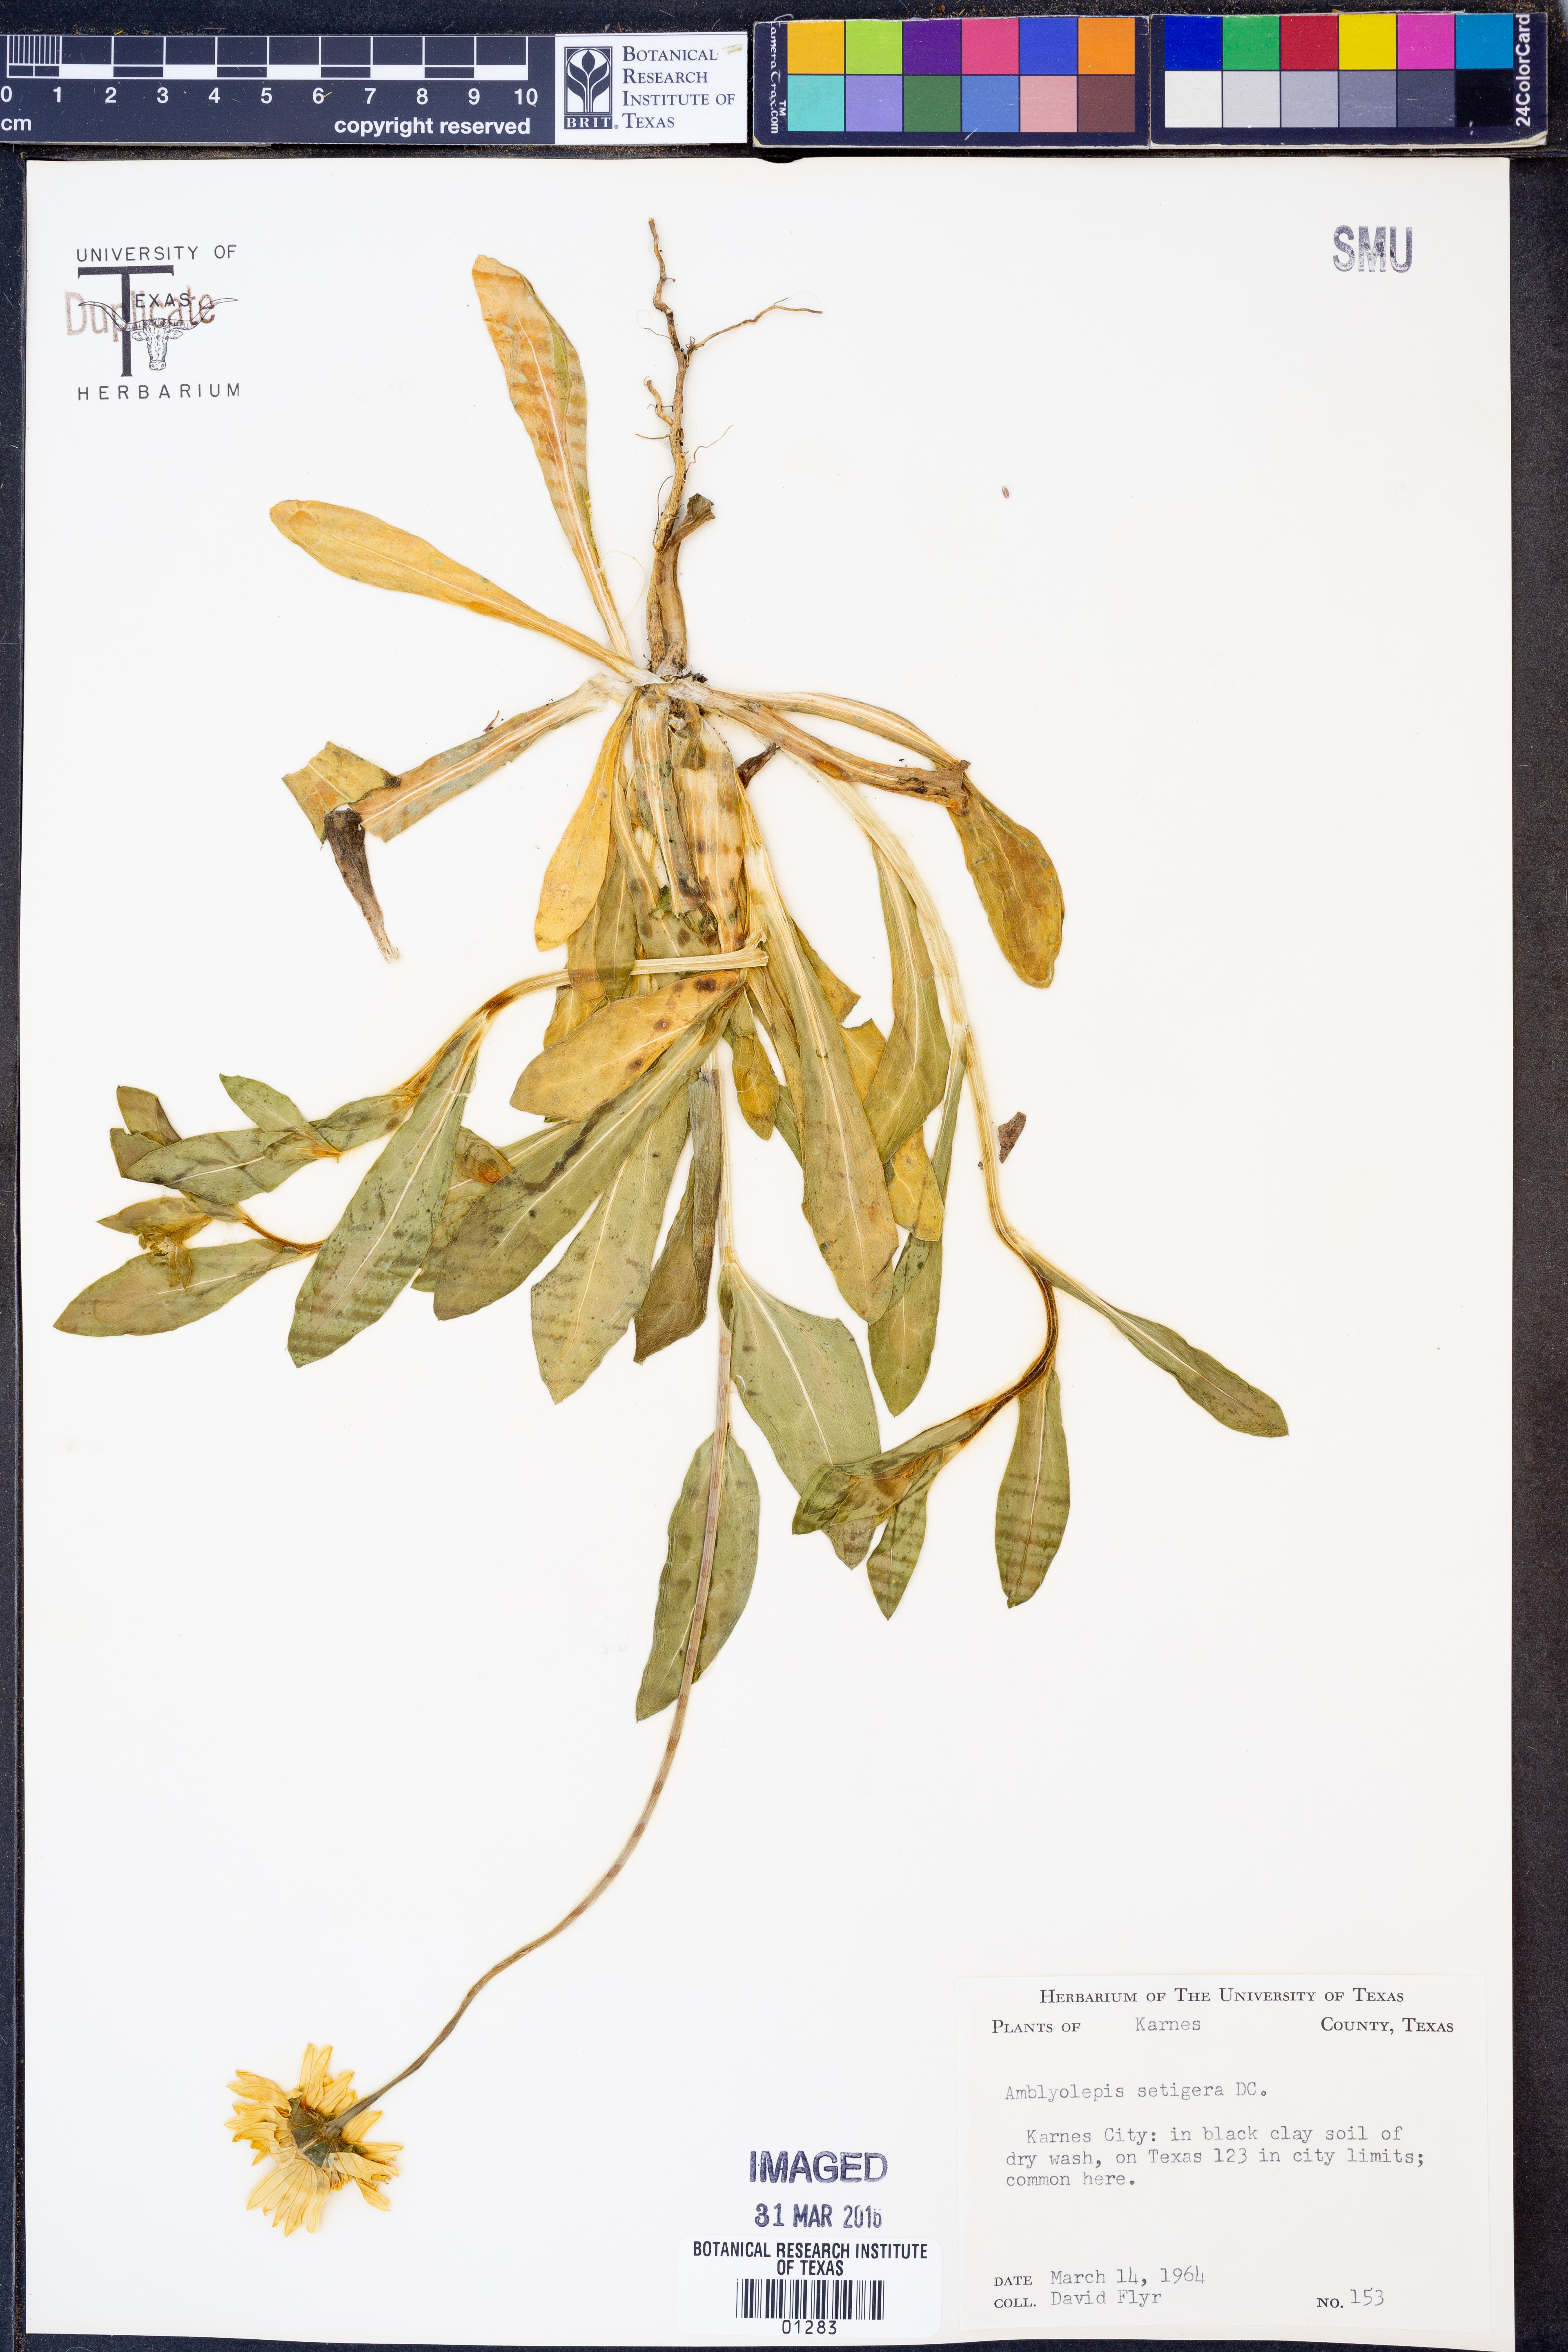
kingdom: Plantae
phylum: Tracheophyta
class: Magnoliopsida
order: Asterales
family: Asteraceae
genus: Amblyolepis
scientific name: Amblyolepis setigera
